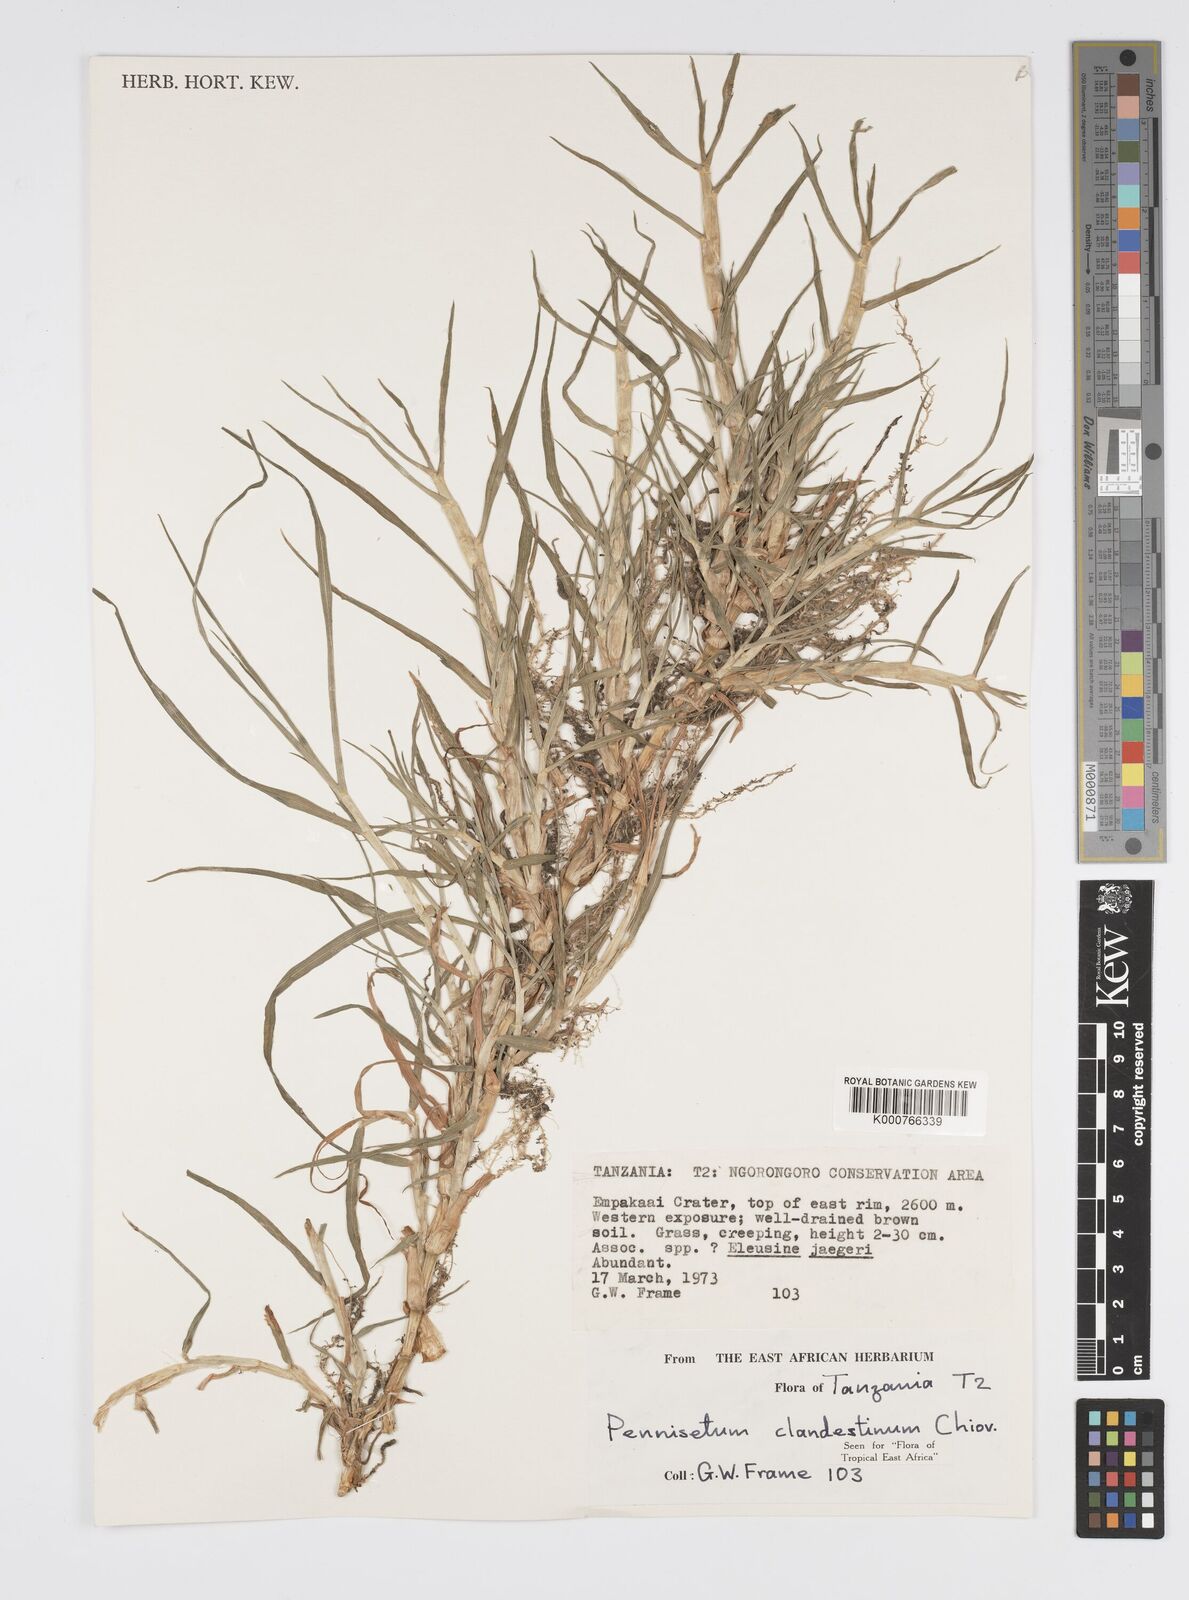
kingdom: Plantae
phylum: Tracheophyta
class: Liliopsida
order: Poales
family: Poaceae
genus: Cenchrus
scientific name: Cenchrus clandestinus
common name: Kikuyugrass
